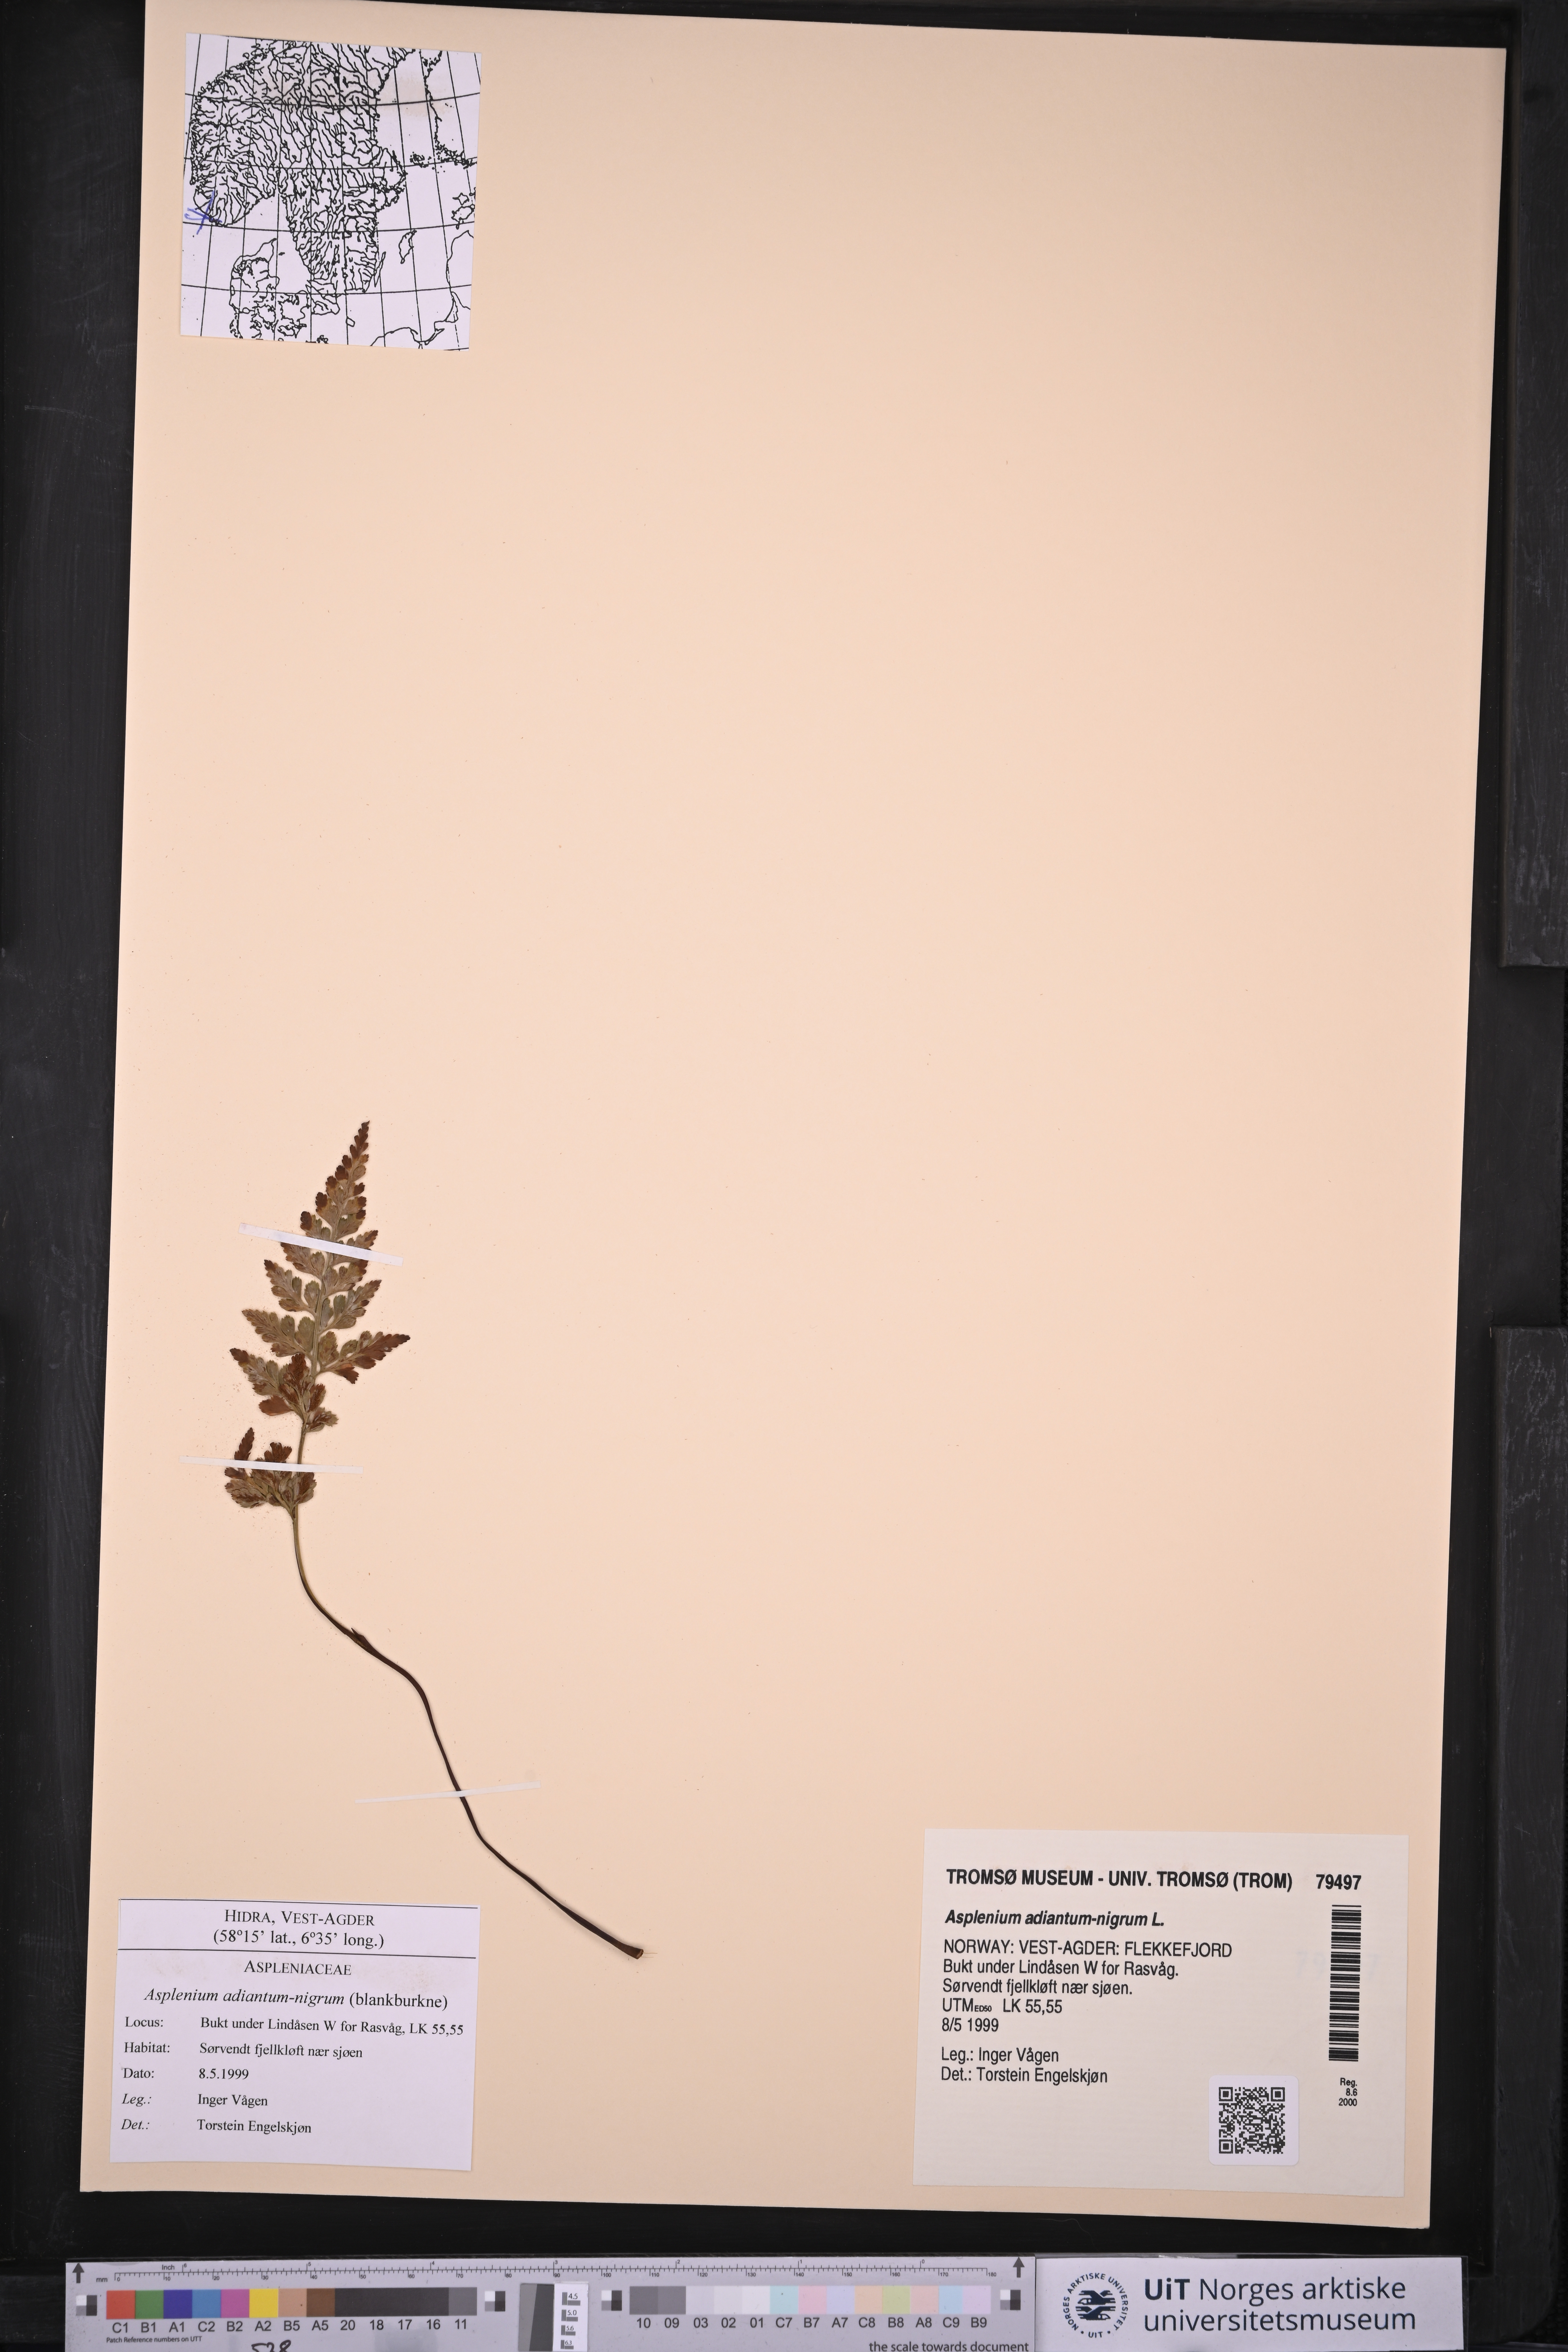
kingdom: Plantae
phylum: Tracheophyta
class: Polypodiopsida
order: Polypodiales
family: Aspleniaceae
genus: Asplenium
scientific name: Asplenium adiantum-nigrum
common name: Black spleenwort
